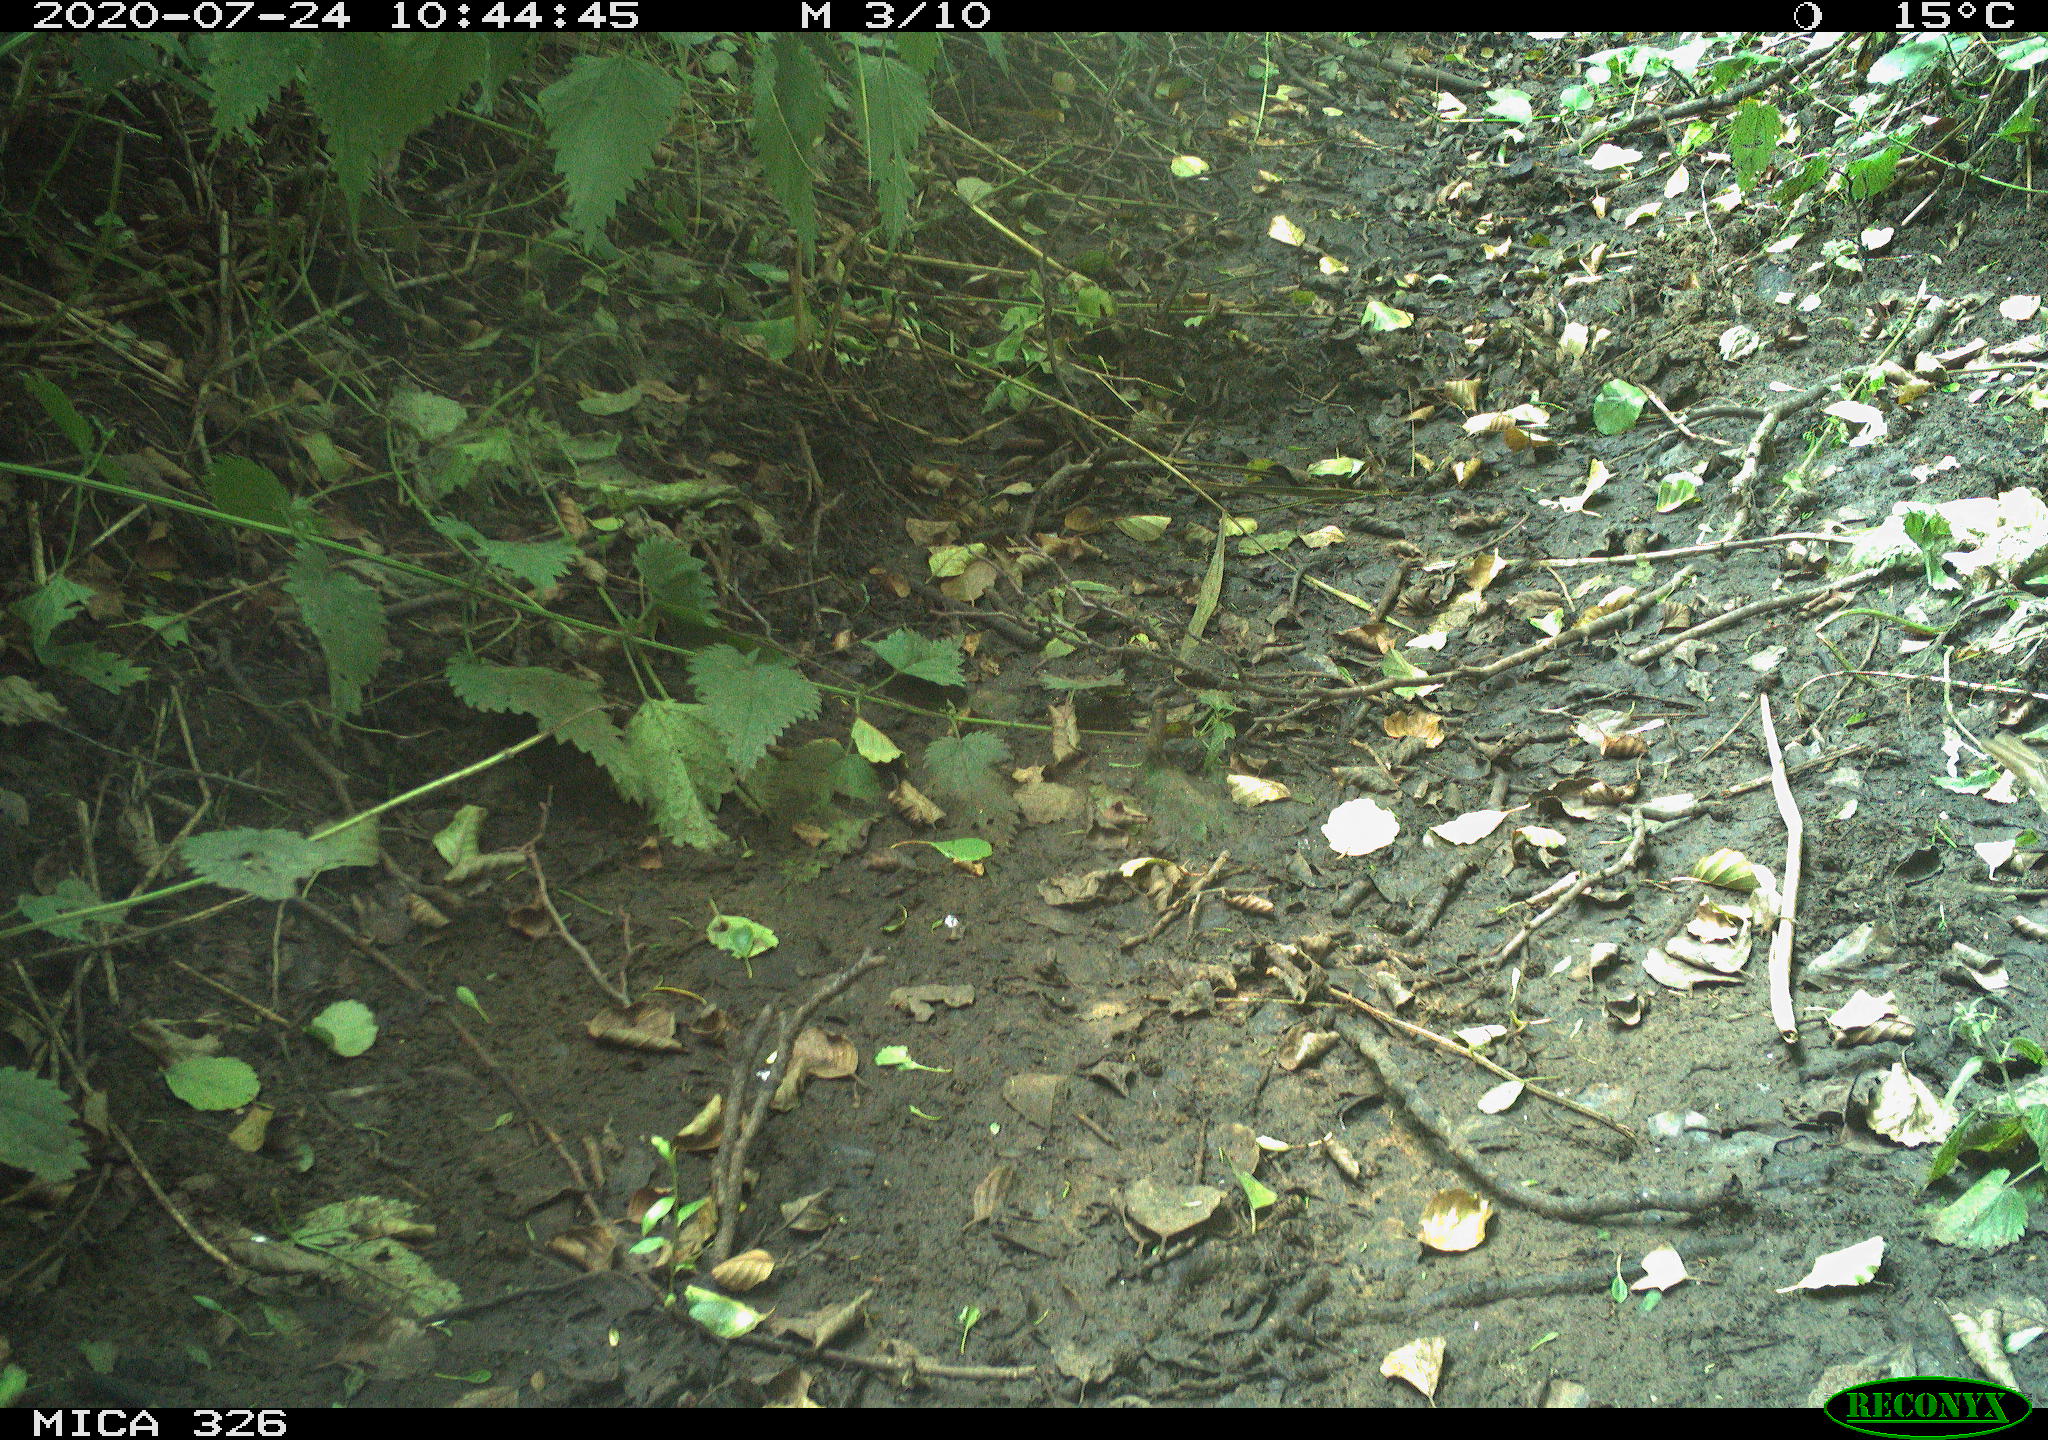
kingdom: Animalia
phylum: Chordata
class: Aves
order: Passeriformes
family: Turdidae
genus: Turdus
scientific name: Turdus philomelos
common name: Song thrush
